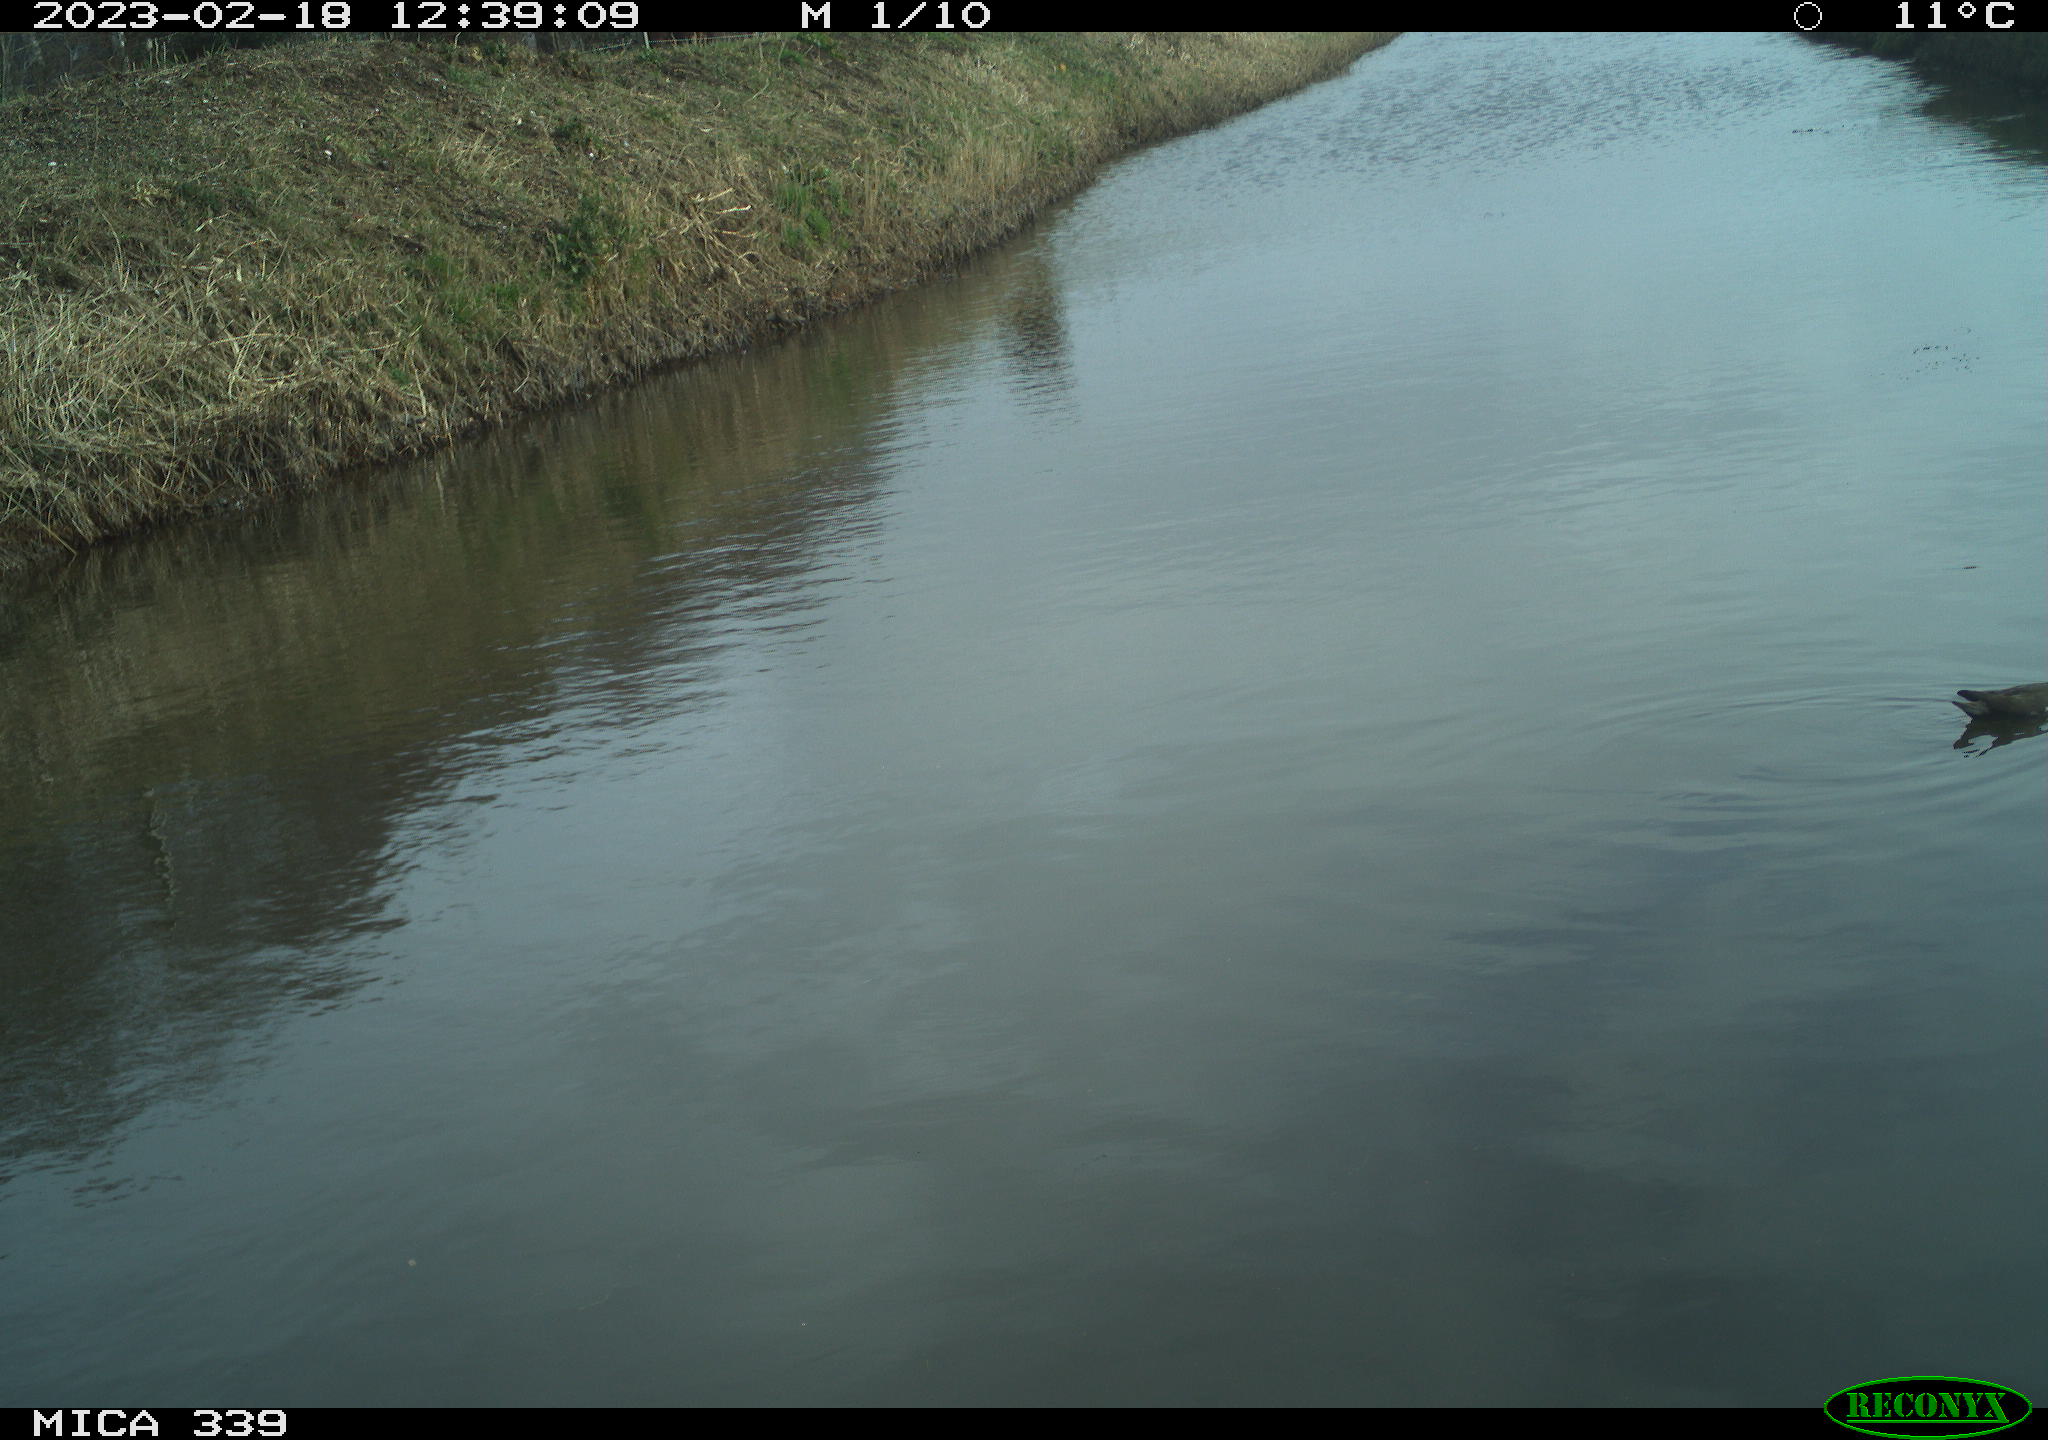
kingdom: Animalia
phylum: Chordata
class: Aves
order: Gruiformes
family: Rallidae
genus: Gallinula
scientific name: Gallinula chloropus
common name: Common moorhen
